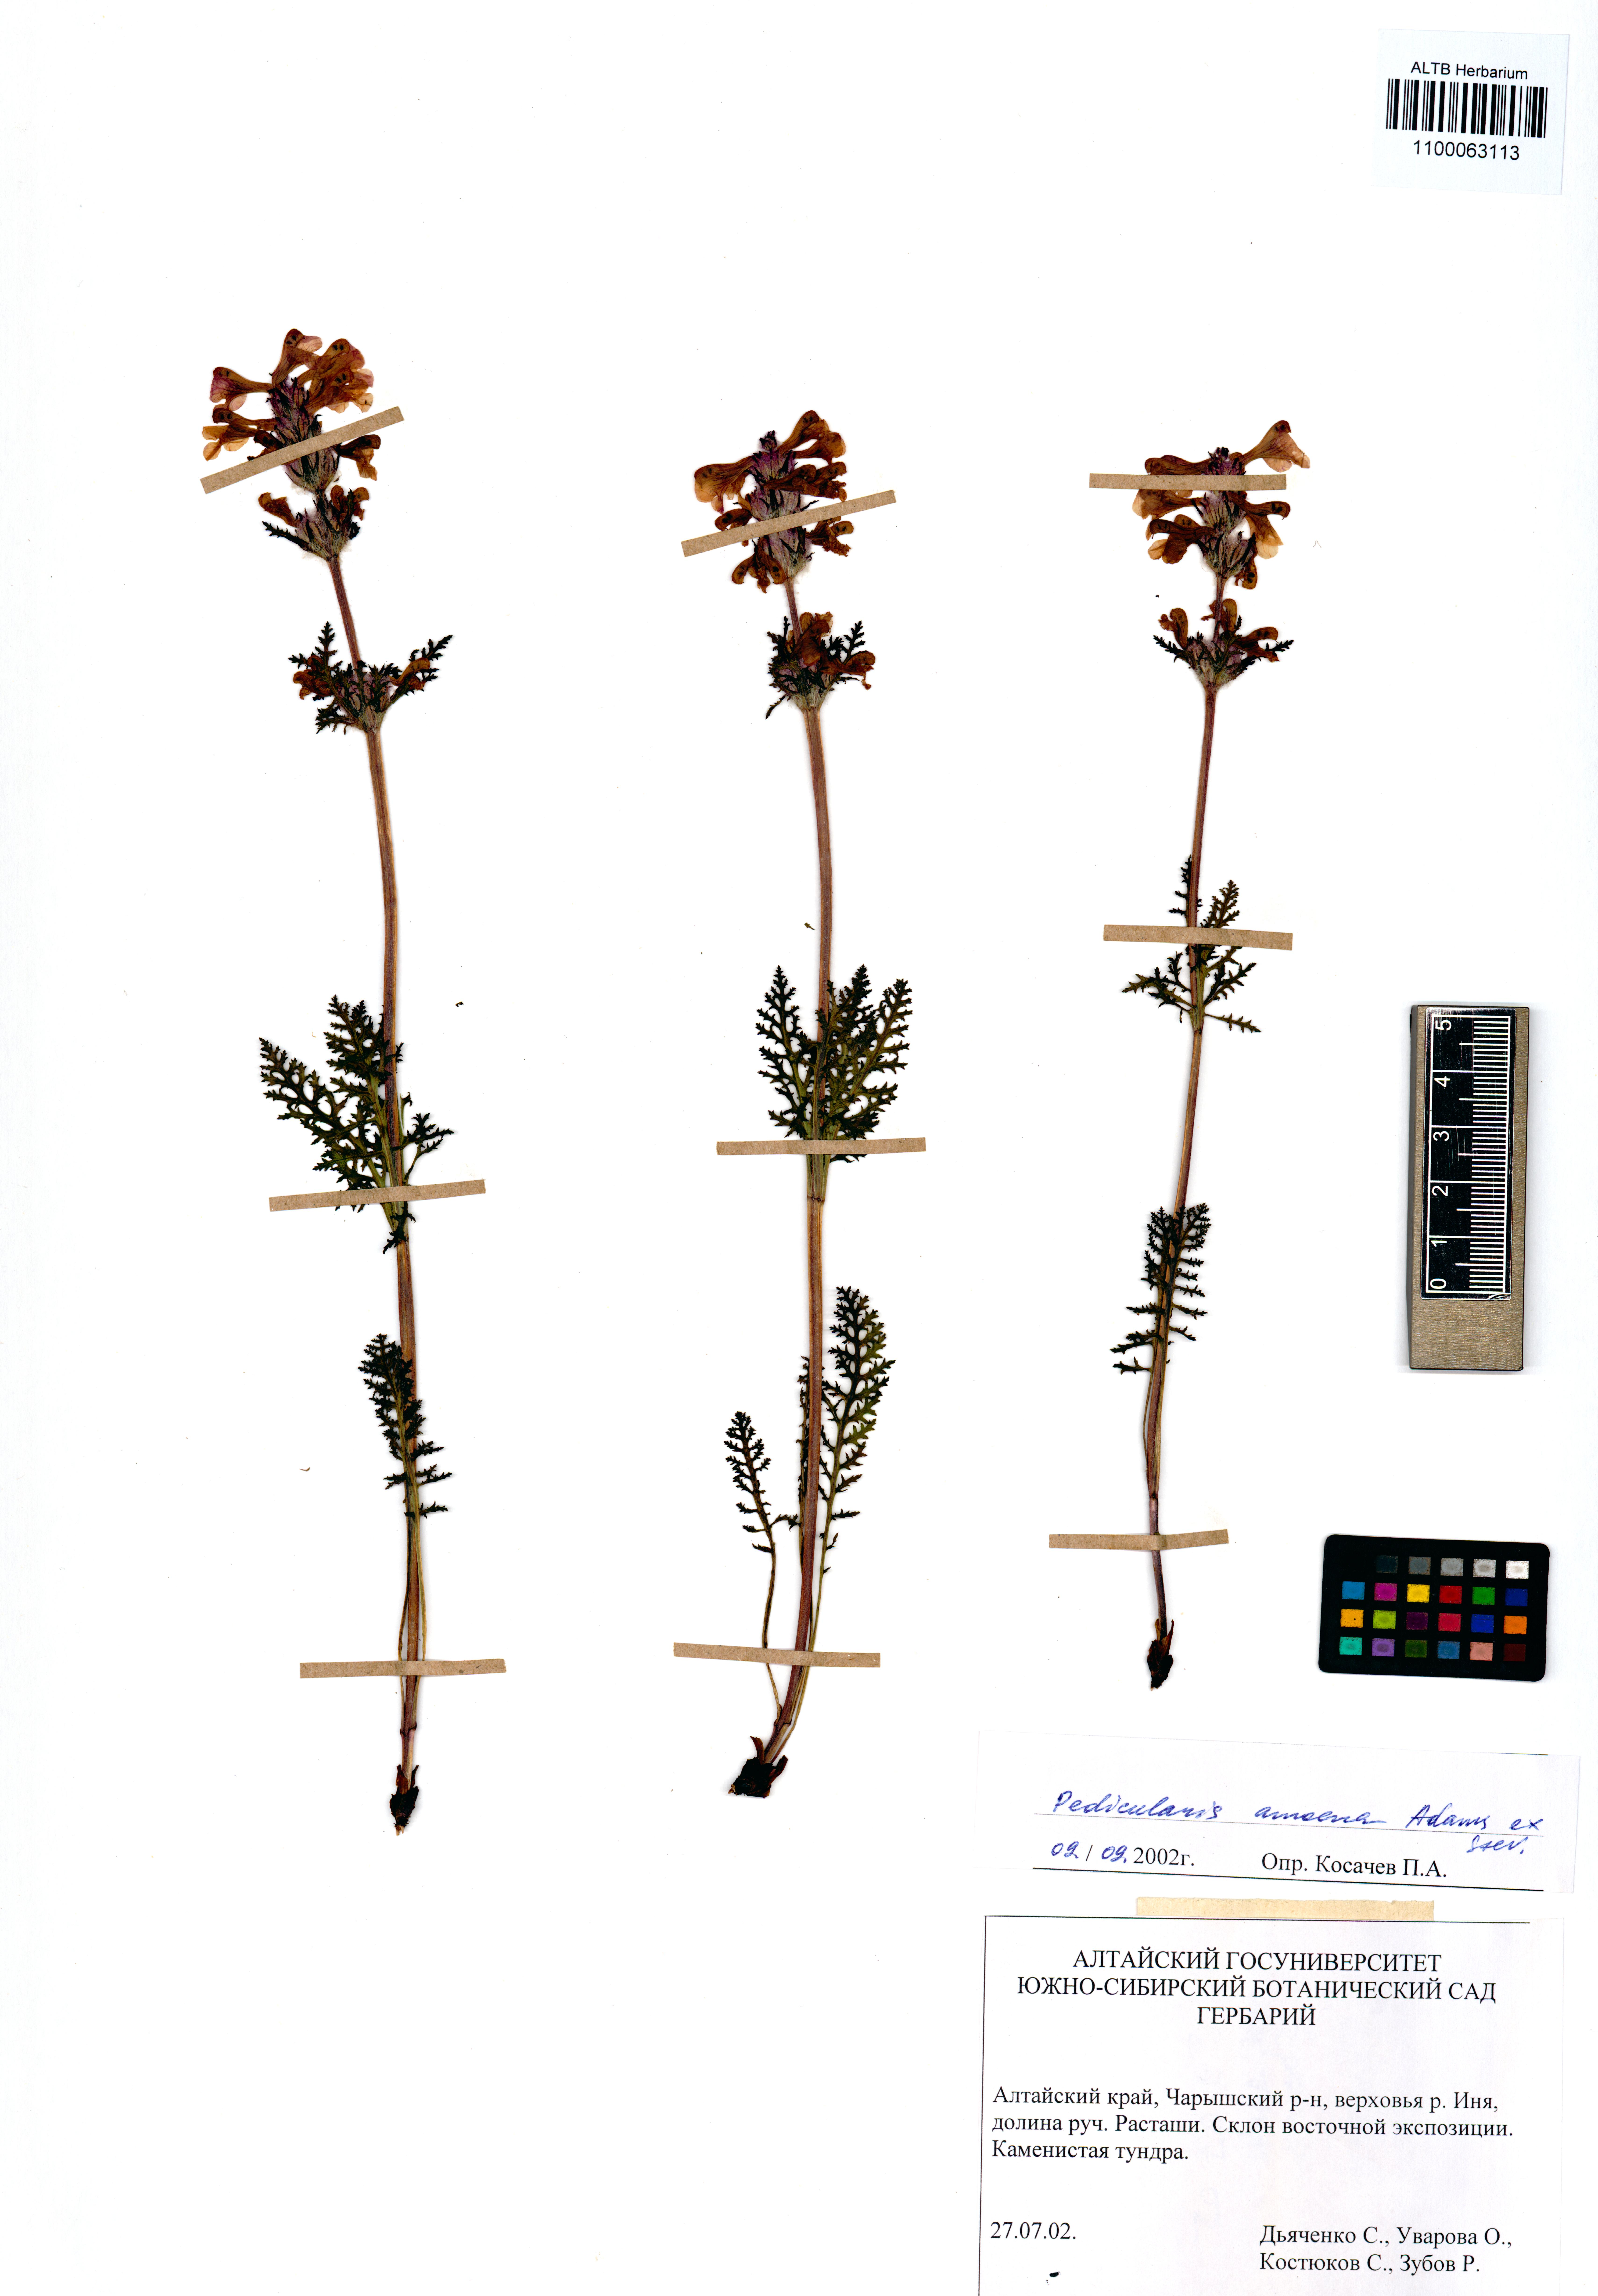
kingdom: Plantae
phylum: Tracheophyta
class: Magnoliopsida
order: Lamiales
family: Orobanchaceae
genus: Pedicularis
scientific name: Pedicularis amoena
